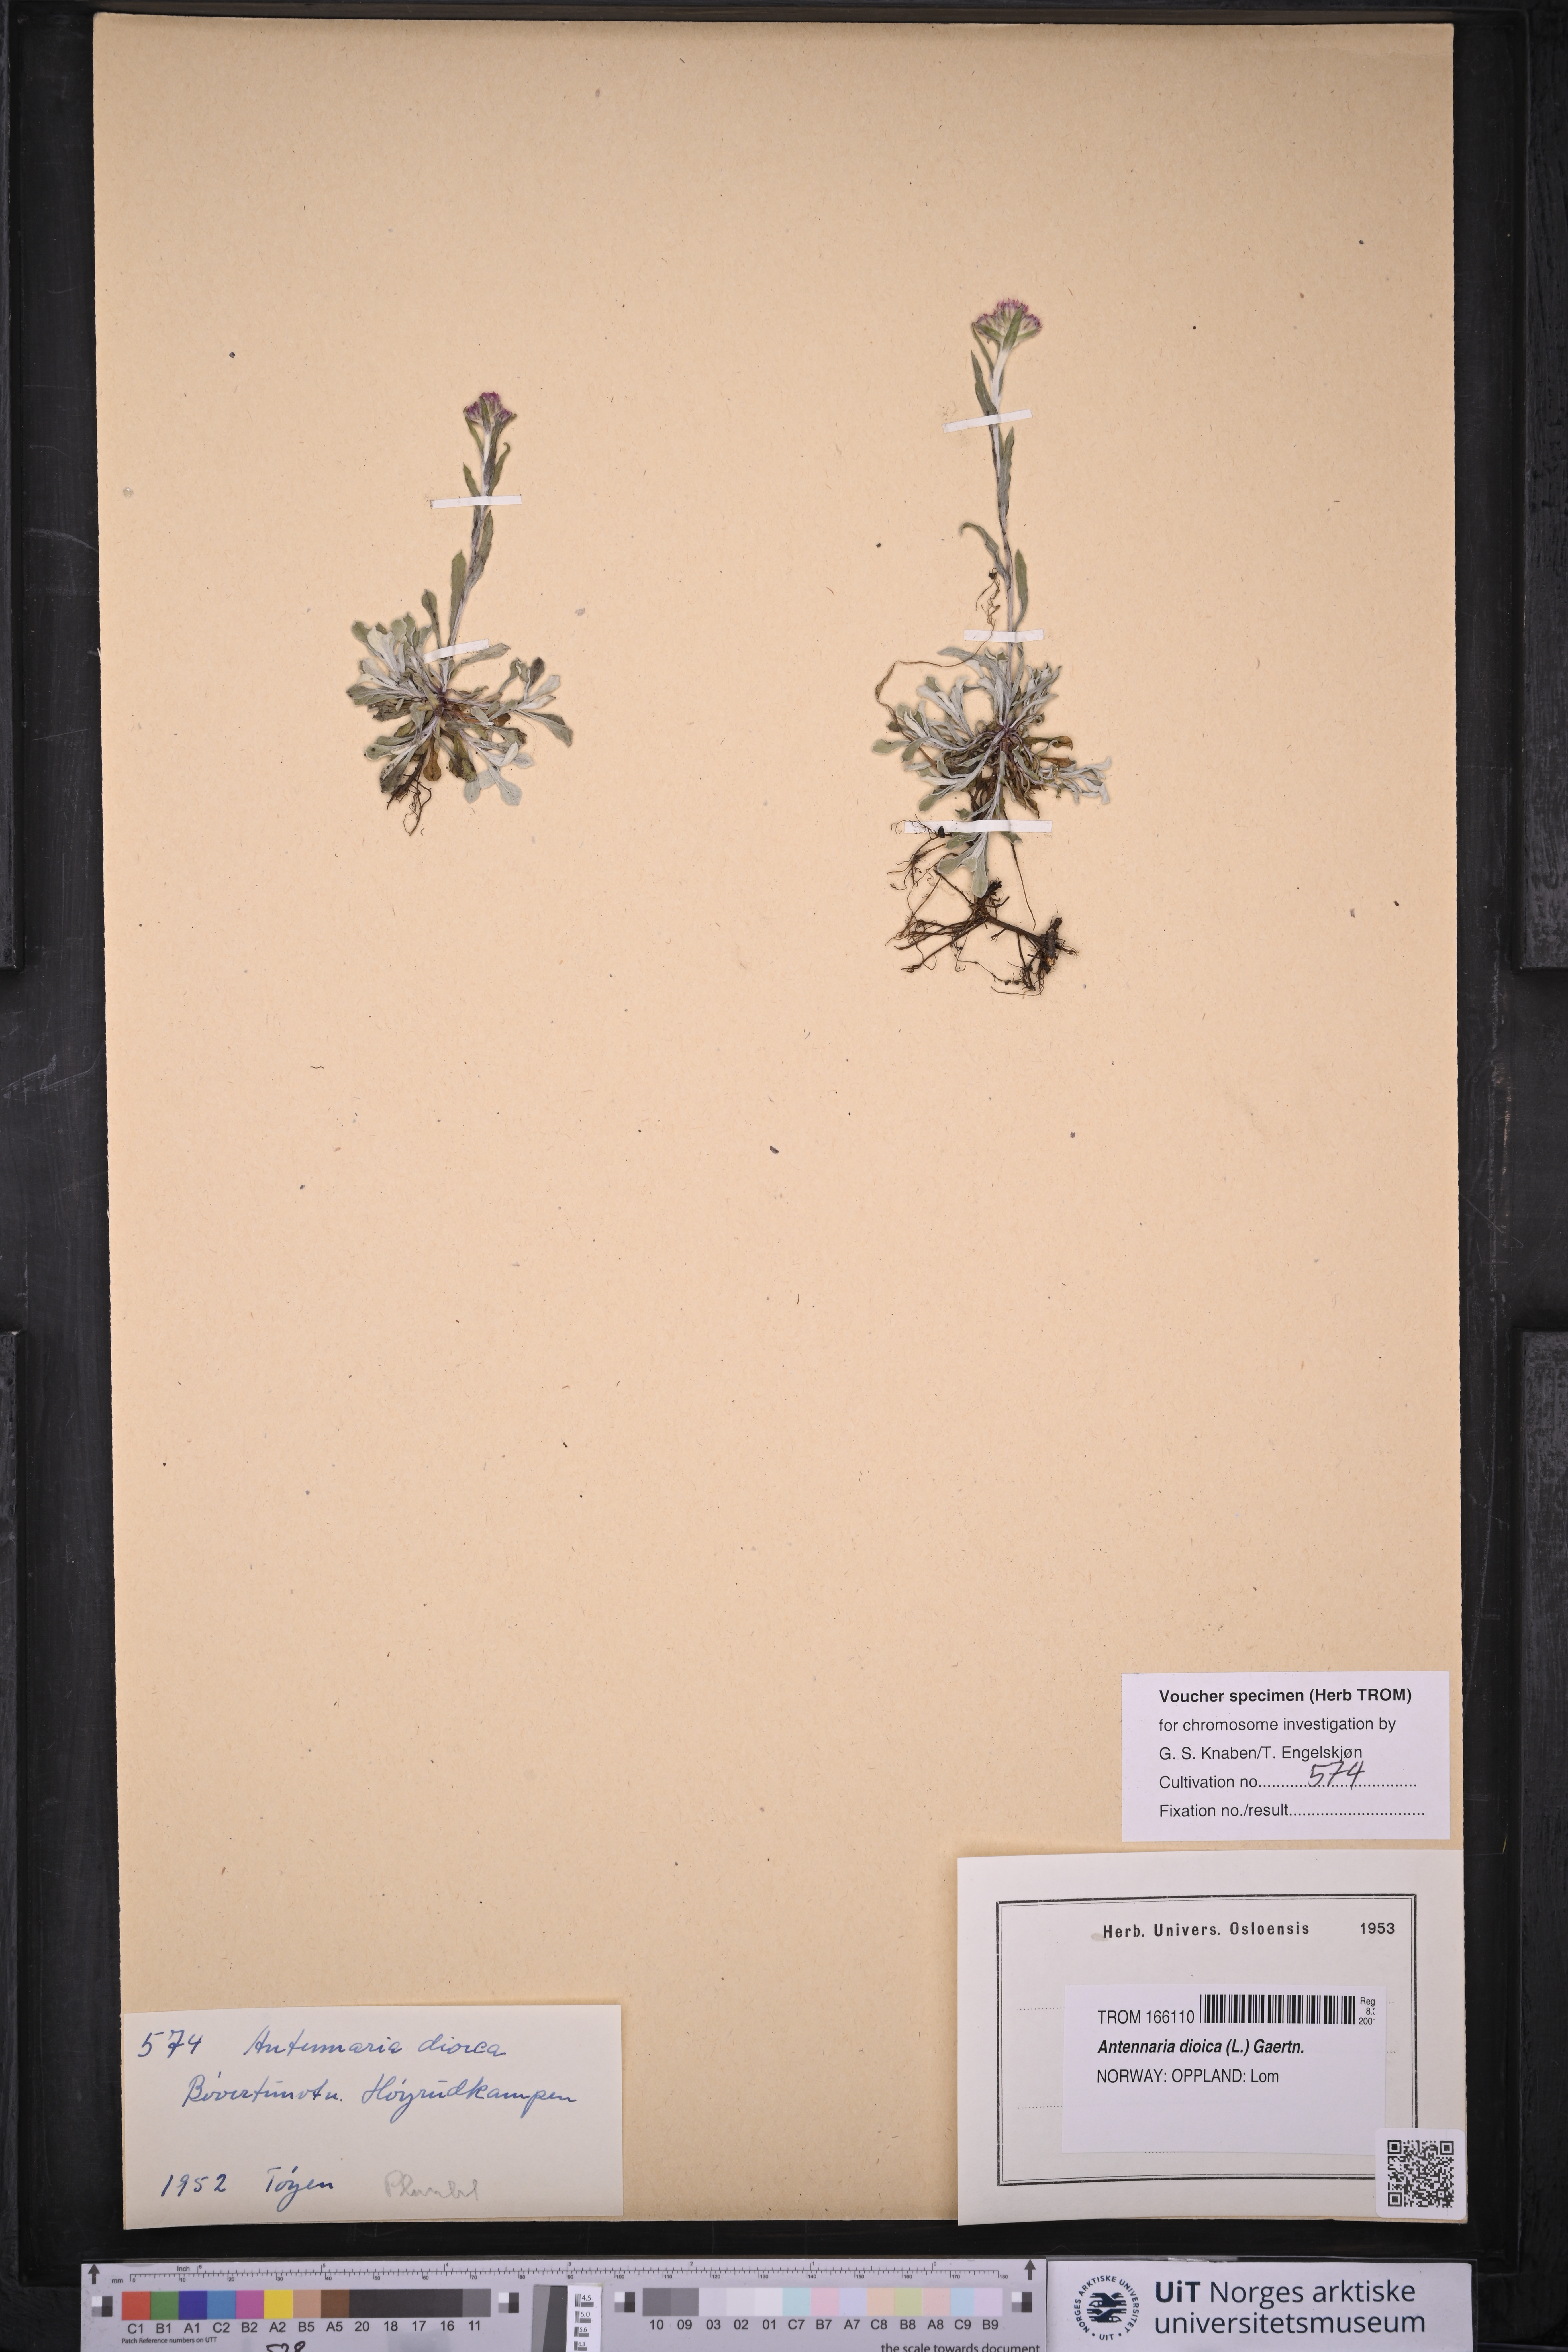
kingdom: Plantae
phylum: Tracheophyta
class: Magnoliopsida
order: Asterales
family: Asteraceae
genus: Antennaria
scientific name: Antennaria dioica
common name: Mountain everlasting
